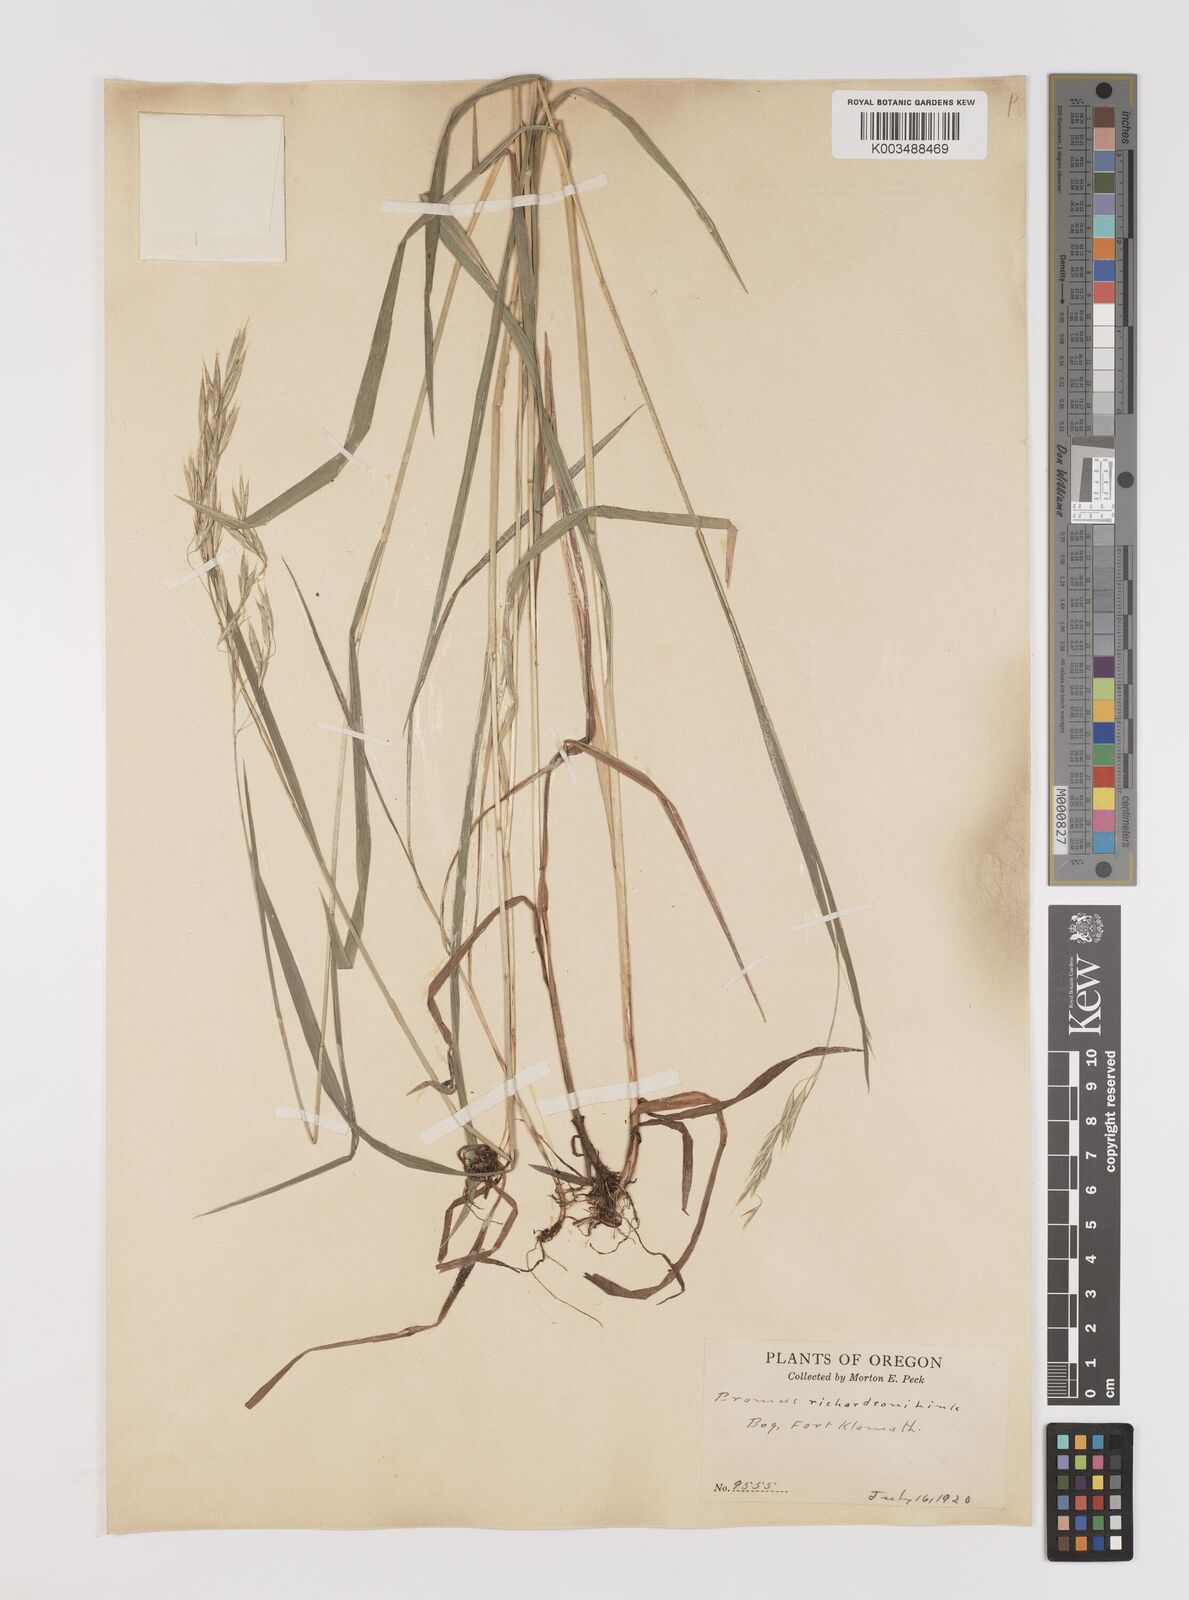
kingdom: Plantae
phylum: Tracheophyta
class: Liliopsida
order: Poales
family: Poaceae
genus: Bromus
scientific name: Bromus richardsonii
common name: Richardson's brome
